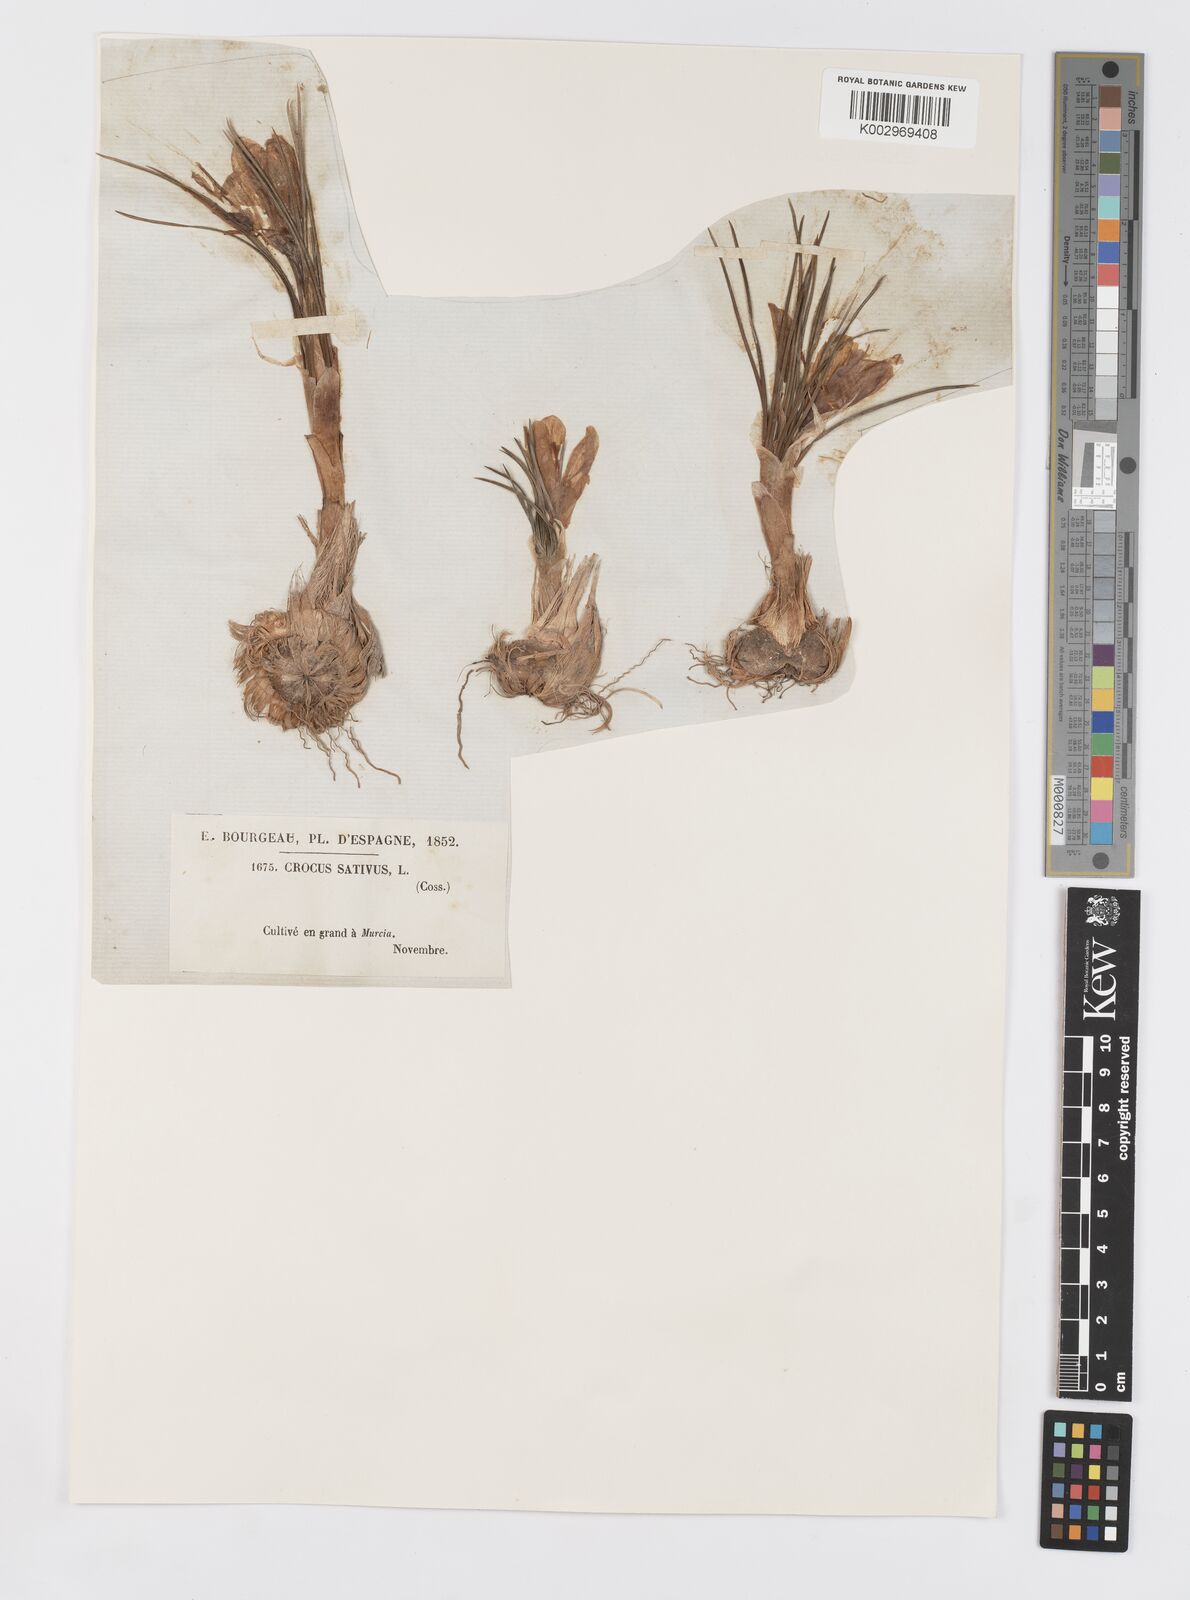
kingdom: Plantae
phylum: Tracheophyta
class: Liliopsida
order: Asparagales
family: Iridaceae
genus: Crocus
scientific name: Crocus sativus
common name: Saffron crocus
